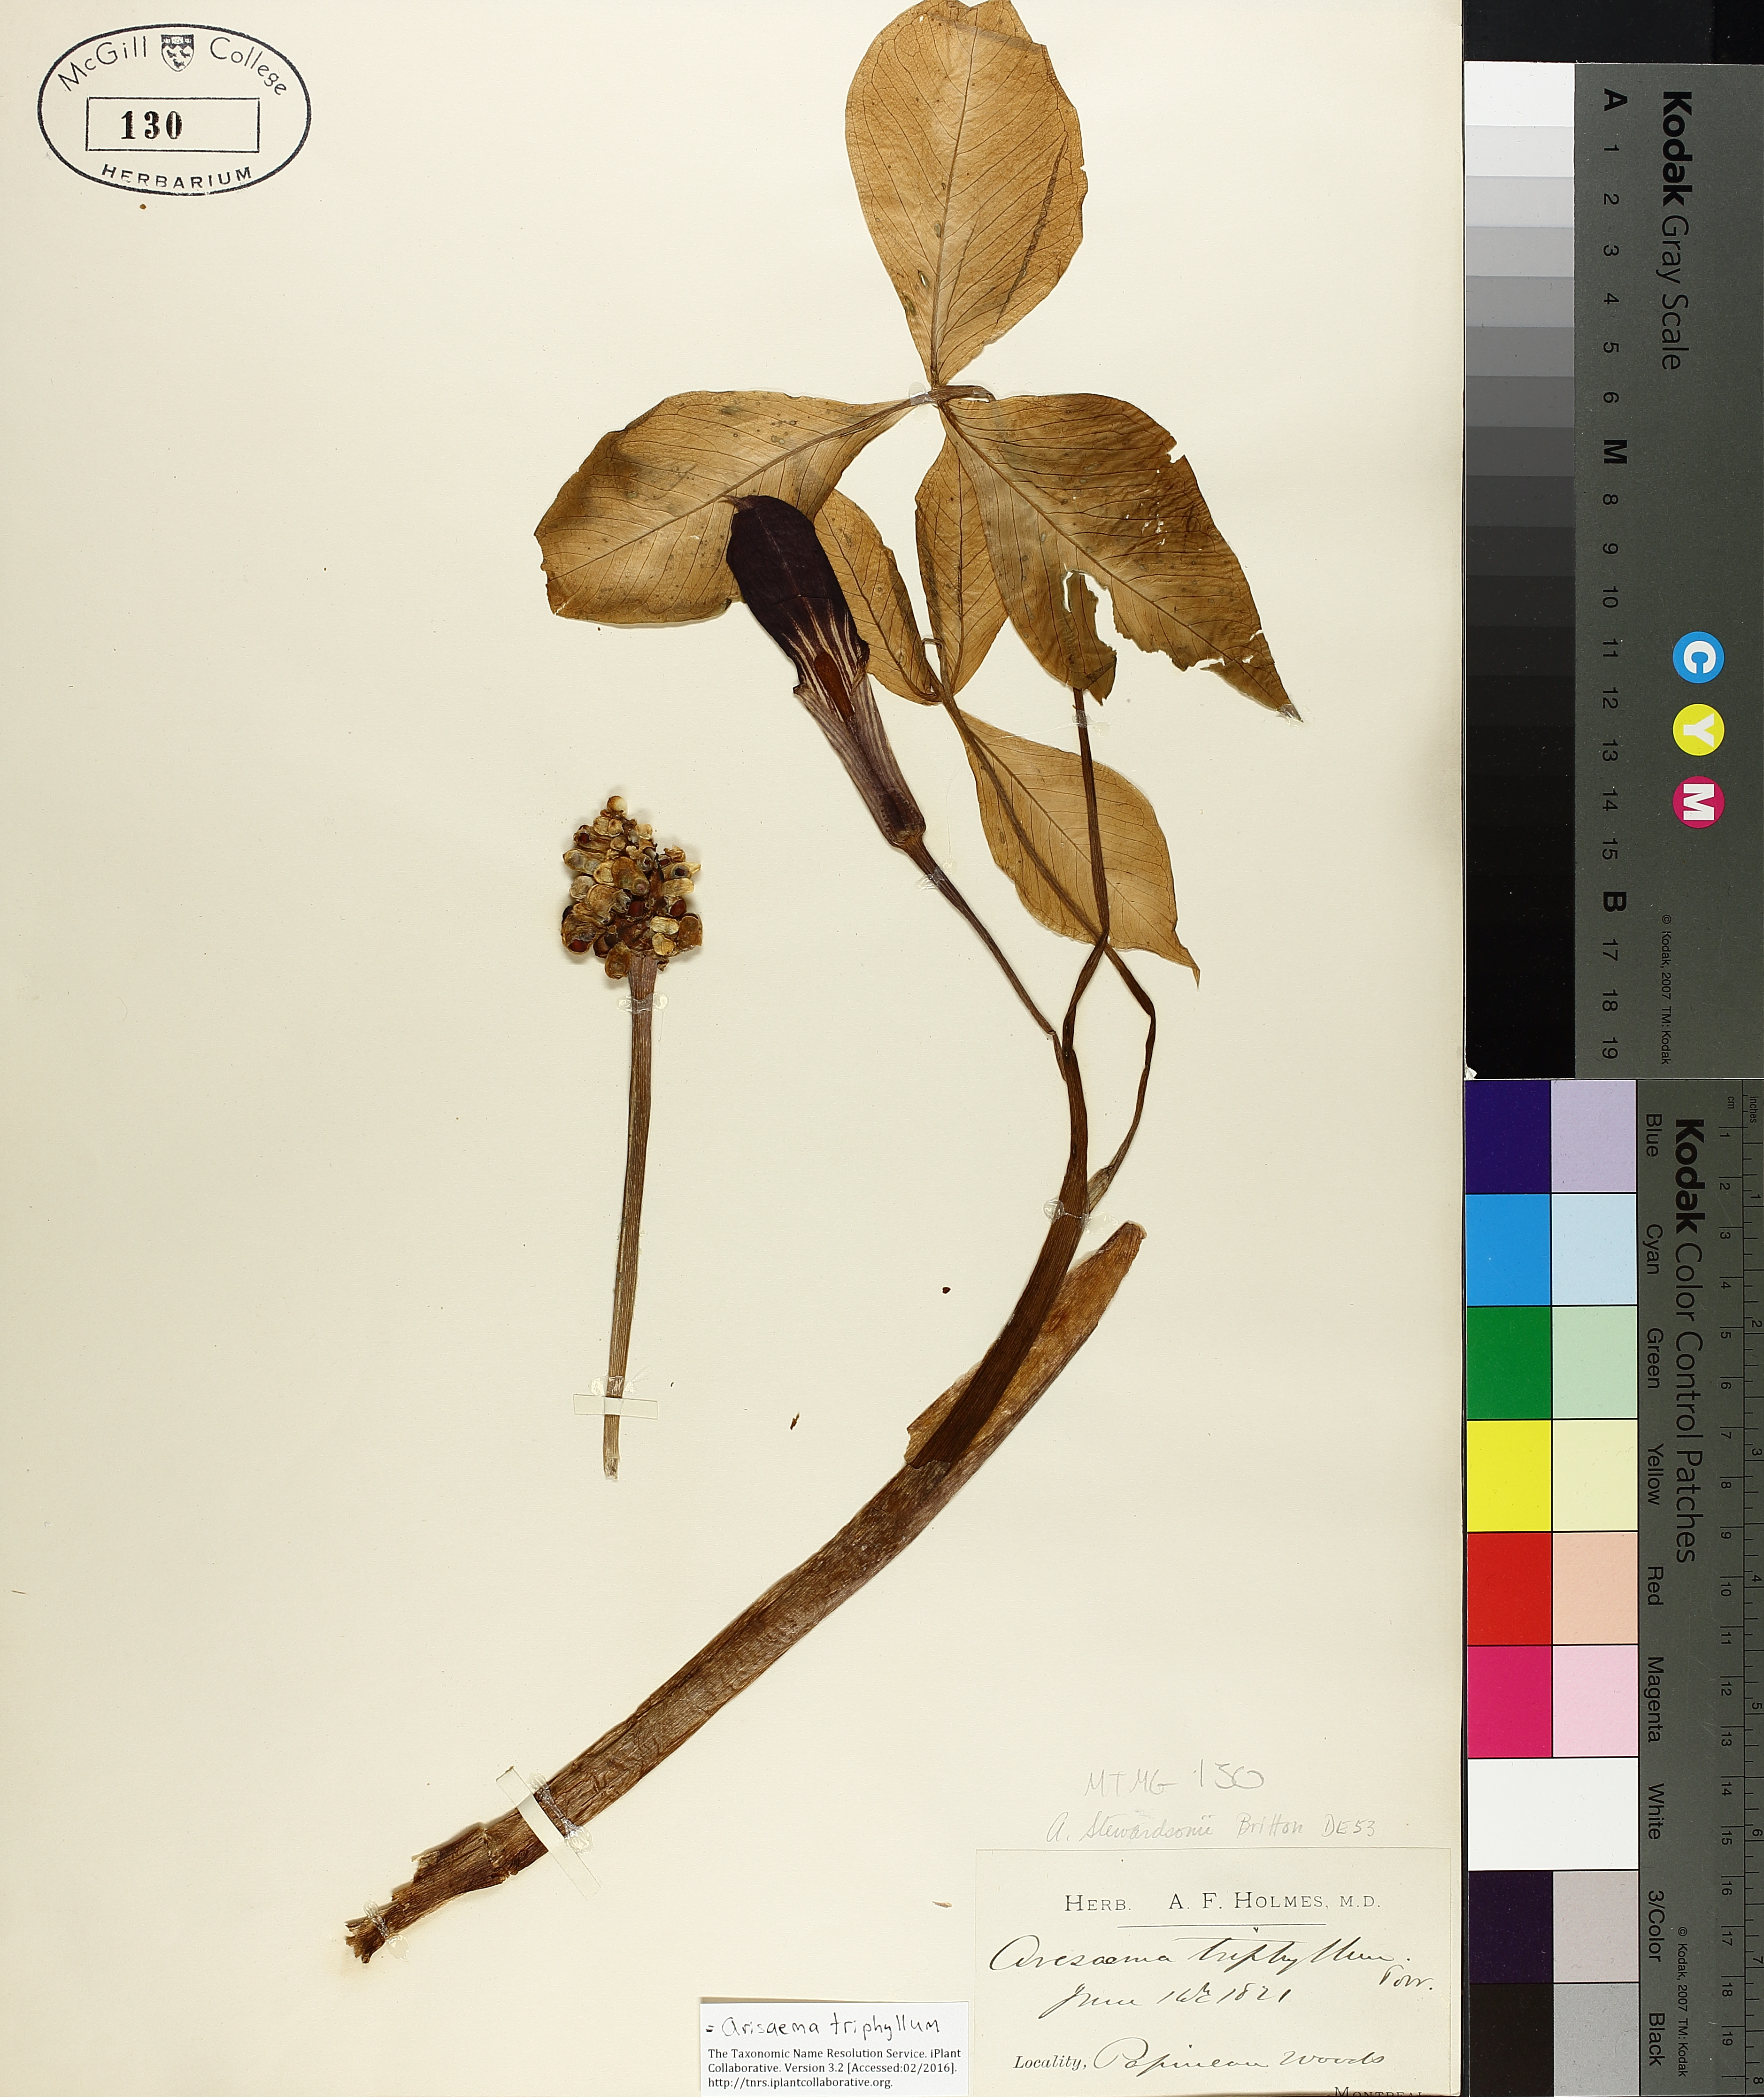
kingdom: Plantae
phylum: Tracheophyta
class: Liliopsida
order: Alismatales
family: Araceae
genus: Arisaema
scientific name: Arisaema triphyllum
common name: Jack-in-the-pulpit
